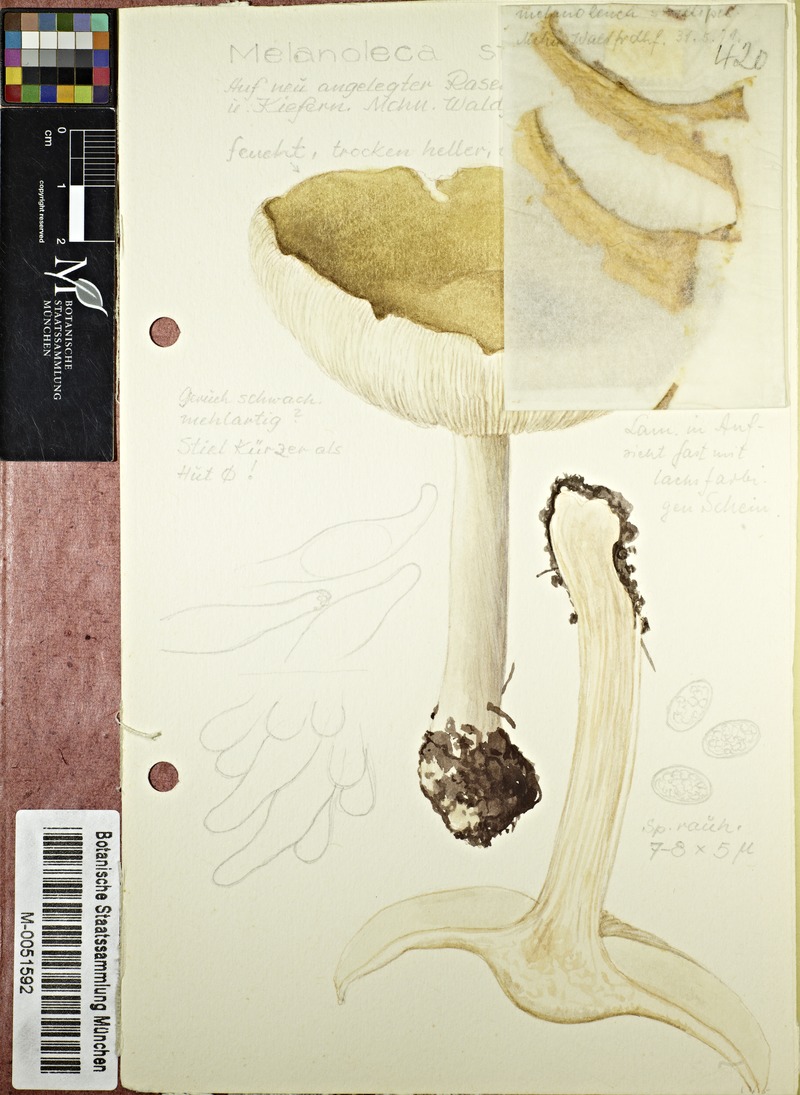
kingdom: Fungi
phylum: Basidiomycota
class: Agaricomycetes
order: Agaricales
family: Tricholomataceae
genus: Melanoleuca
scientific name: Melanoleuca strictipes
